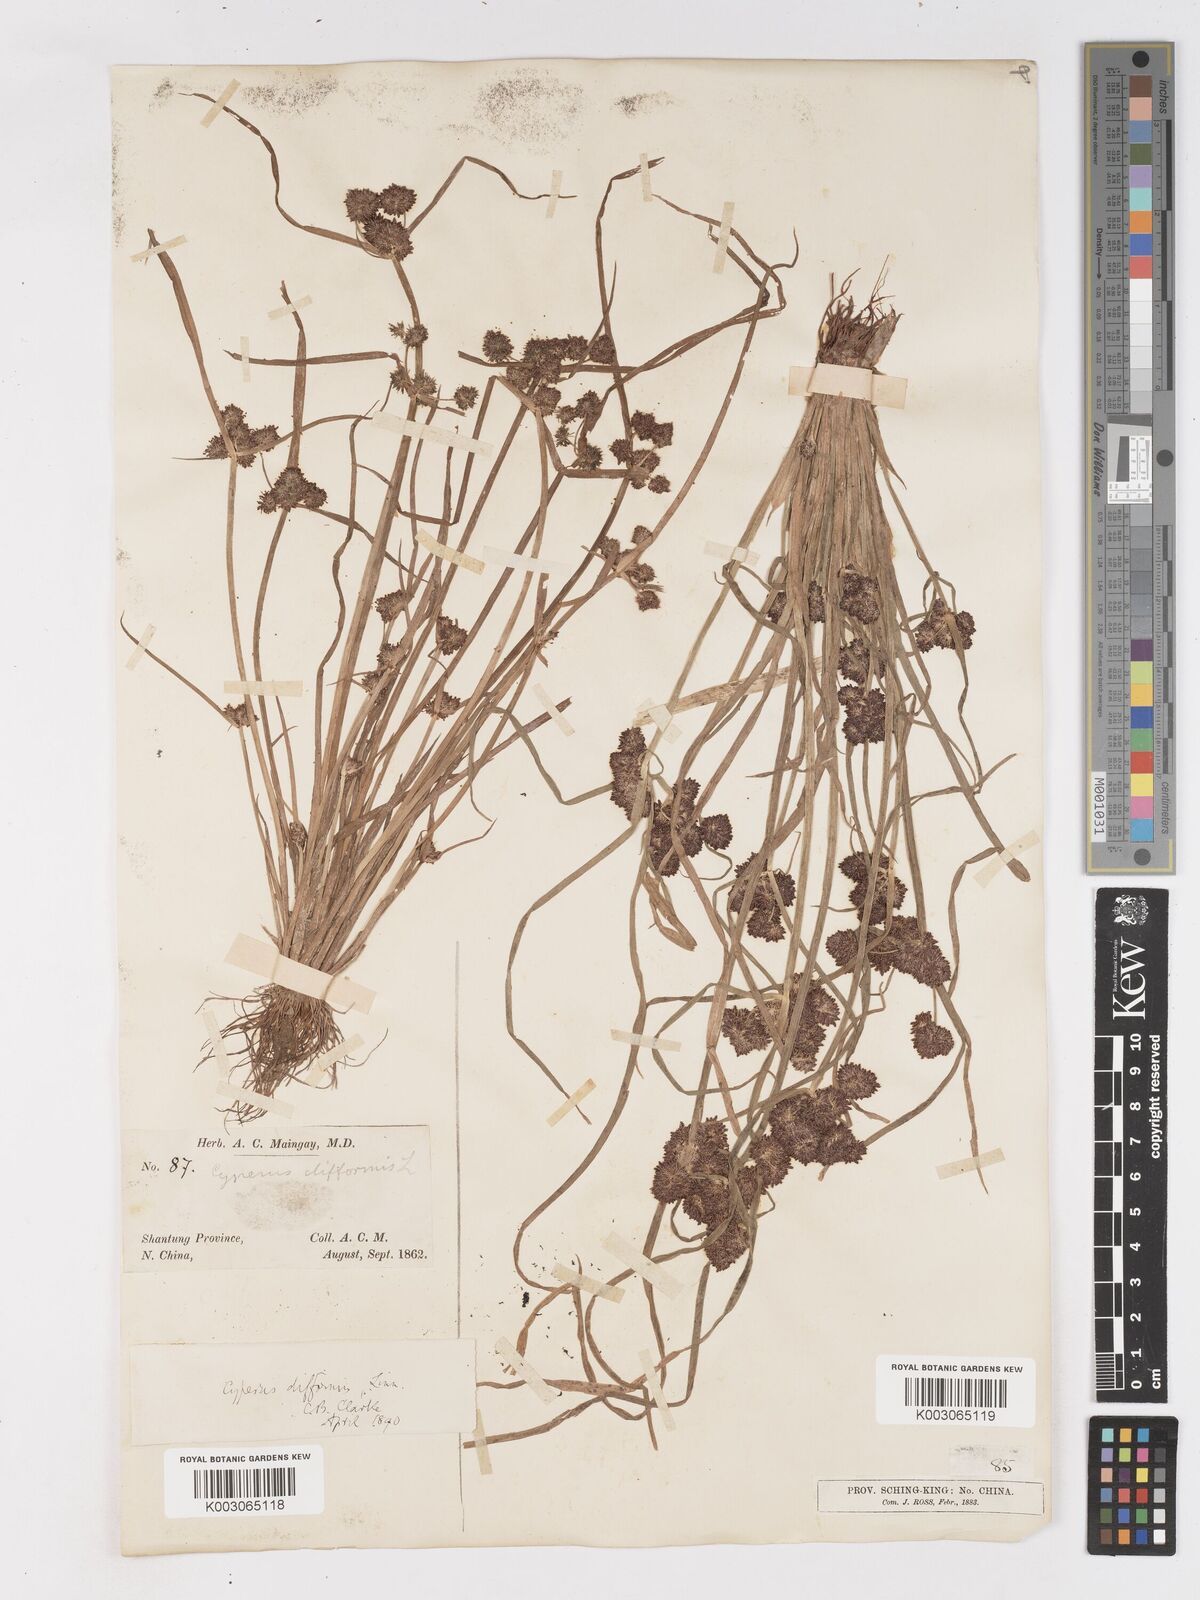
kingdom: Plantae
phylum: Tracheophyta
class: Liliopsida
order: Poales
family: Cyperaceae
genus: Cyperus
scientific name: Cyperus difformis
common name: Variable flatsedge
